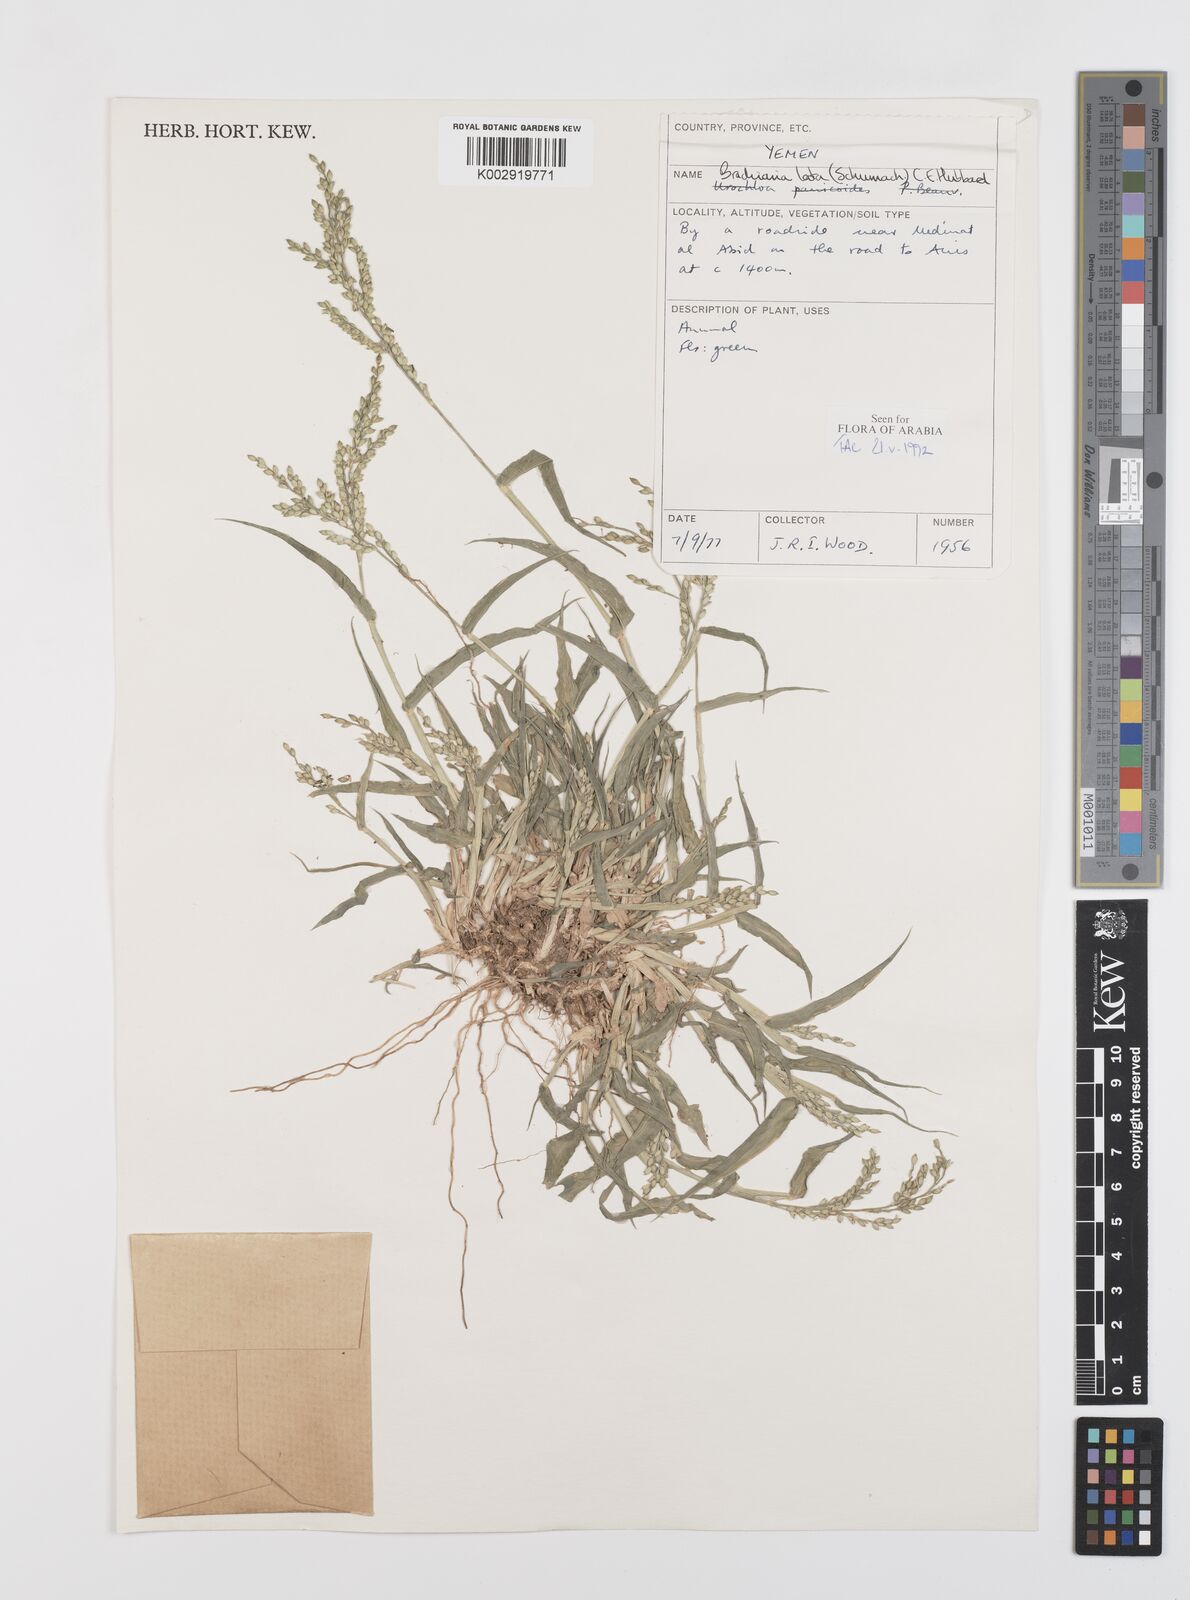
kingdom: Plantae
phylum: Tracheophyta
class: Liliopsida
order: Poales
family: Poaceae
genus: Urochloa
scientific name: Urochloa lata
